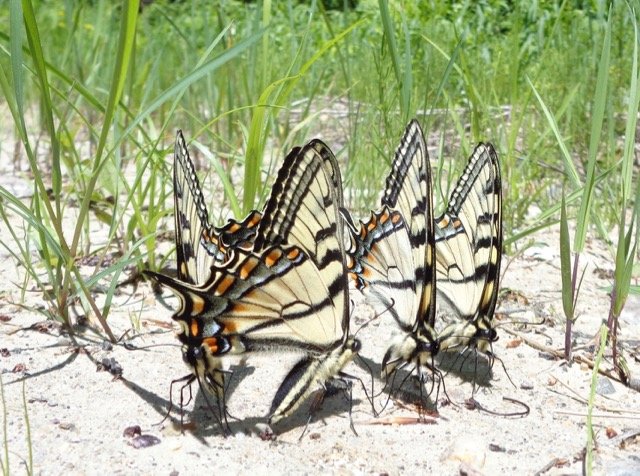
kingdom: Animalia
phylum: Arthropoda
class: Insecta
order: Lepidoptera
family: Papilionidae
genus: Pterourus
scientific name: Pterourus canadensis
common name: Canadian Tiger Swallowtail
